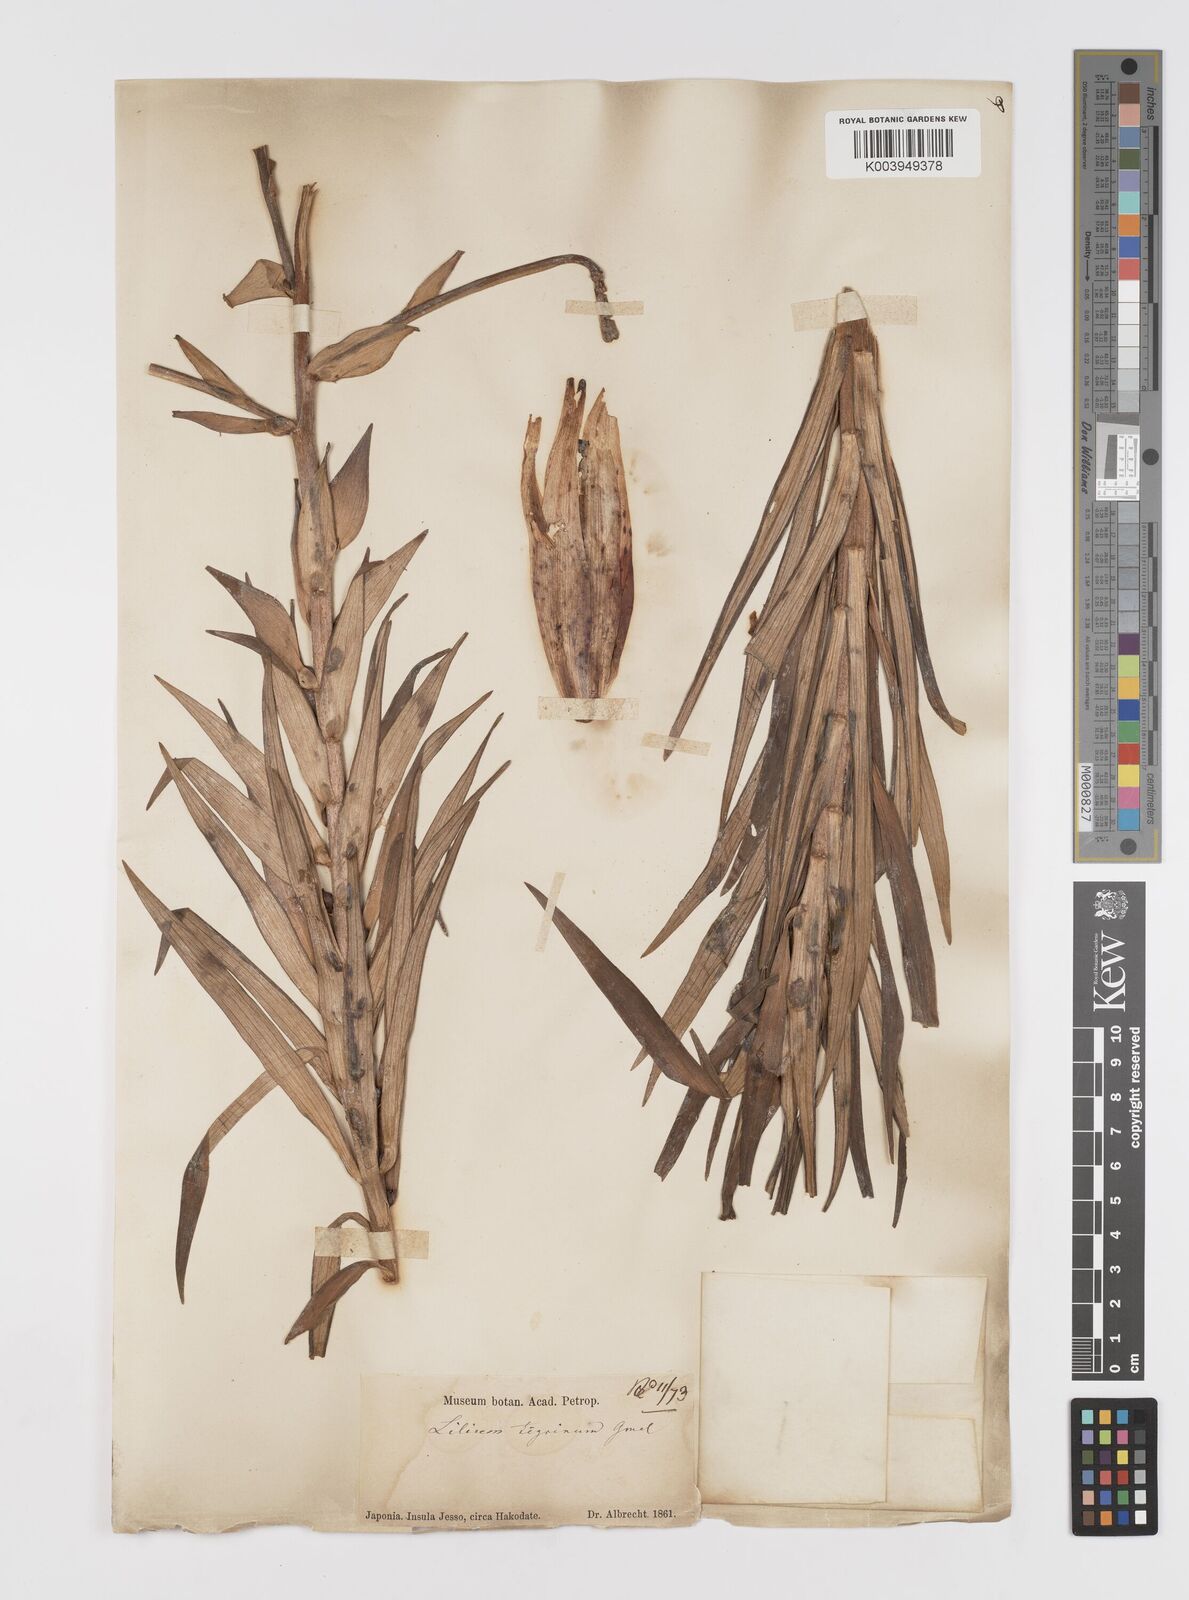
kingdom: Plantae
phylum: Tracheophyta
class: Liliopsida
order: Liliales
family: Liliaceae
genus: Lilium
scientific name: Lilium lancifolium
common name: Tiger lily
